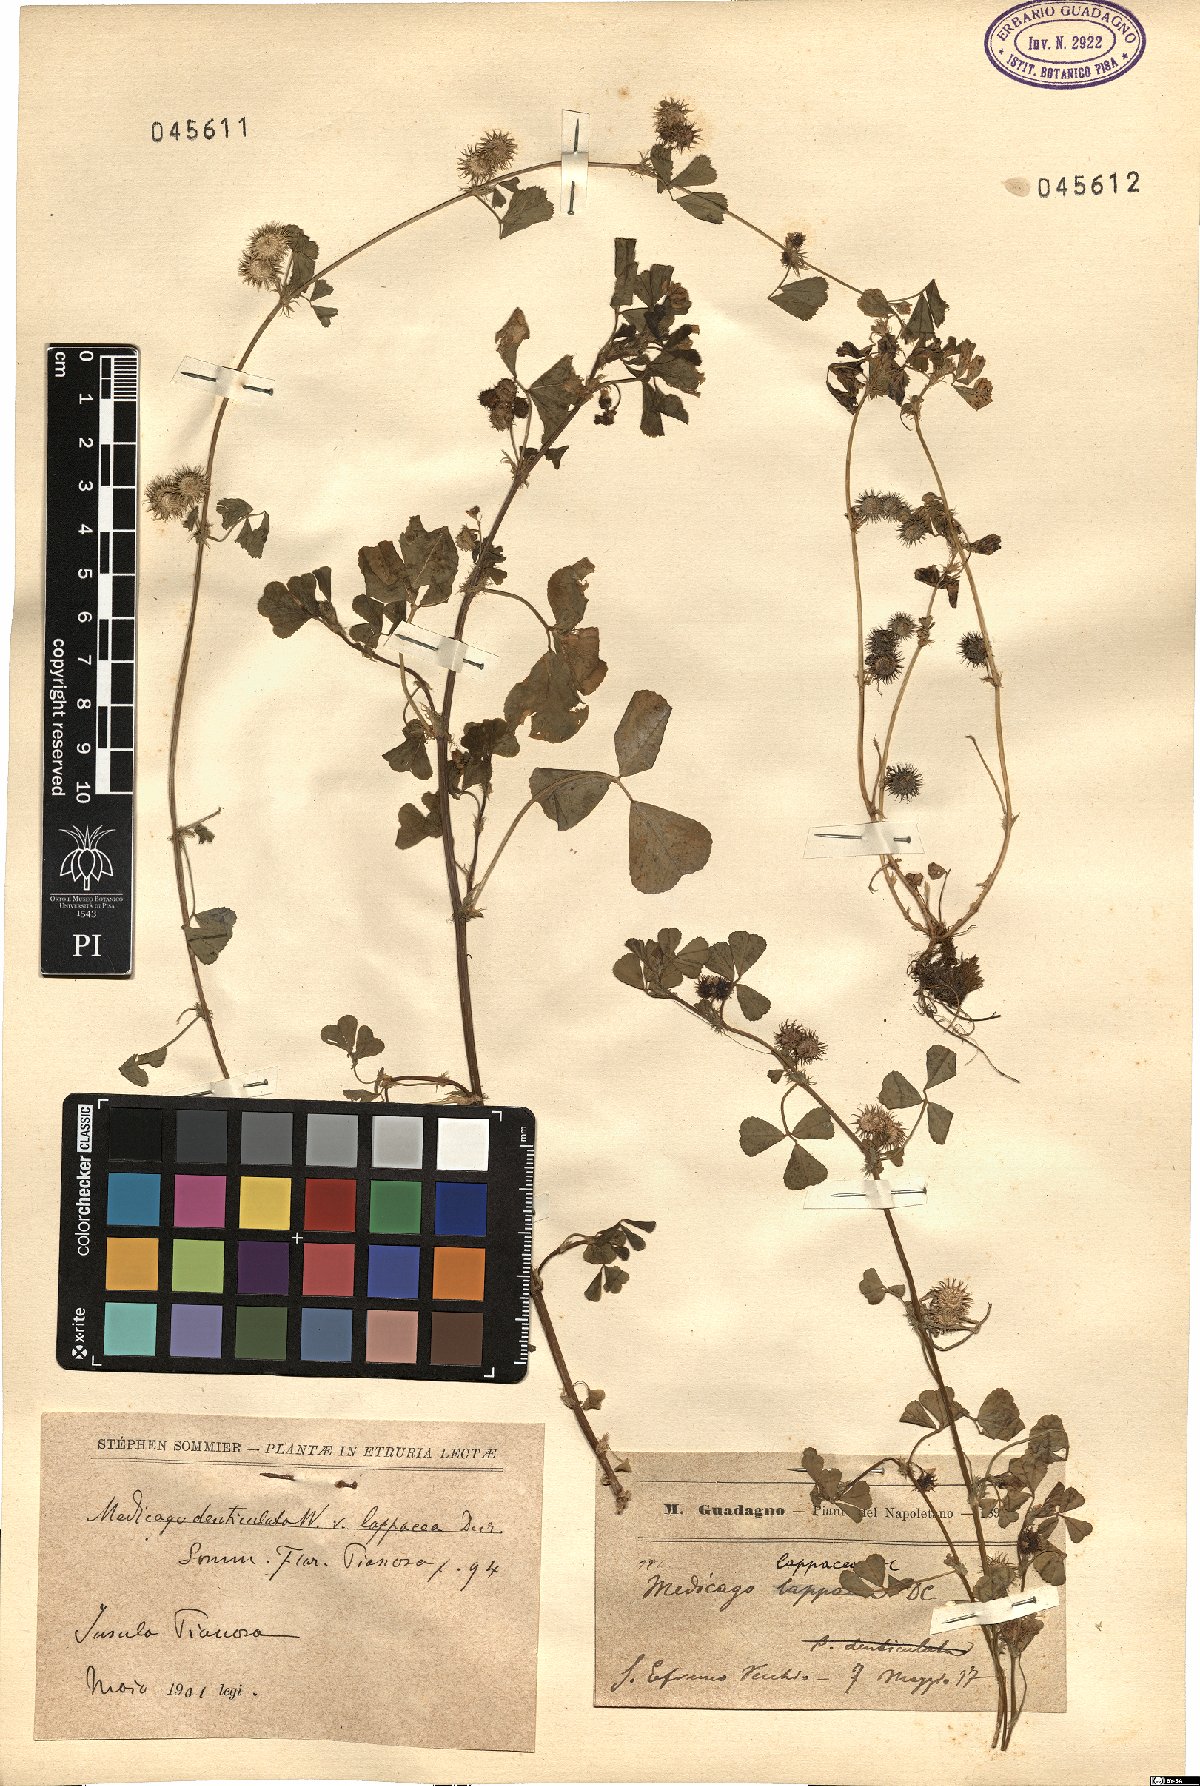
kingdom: Plantae
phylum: Tracheophyta
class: Magnoliopsida
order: Fabales
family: Fabaceae
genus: Medicago
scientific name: Medicago polymorpha
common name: Burclover
